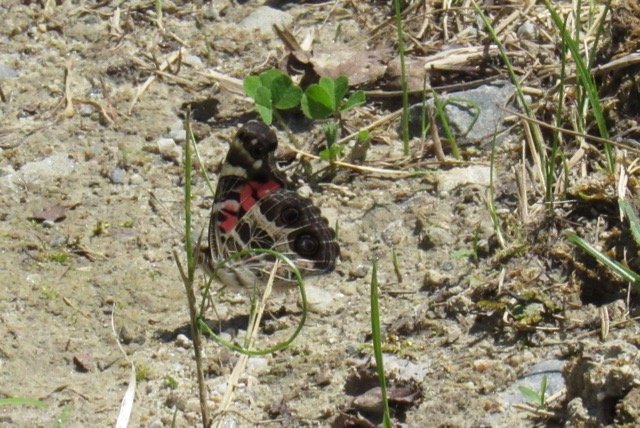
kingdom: Animalia
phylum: Arthropoda
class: Insecta
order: Lepidoptera
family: Nymphalidae
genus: Vanessa
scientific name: Vanessa virginiensis
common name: American Lady
